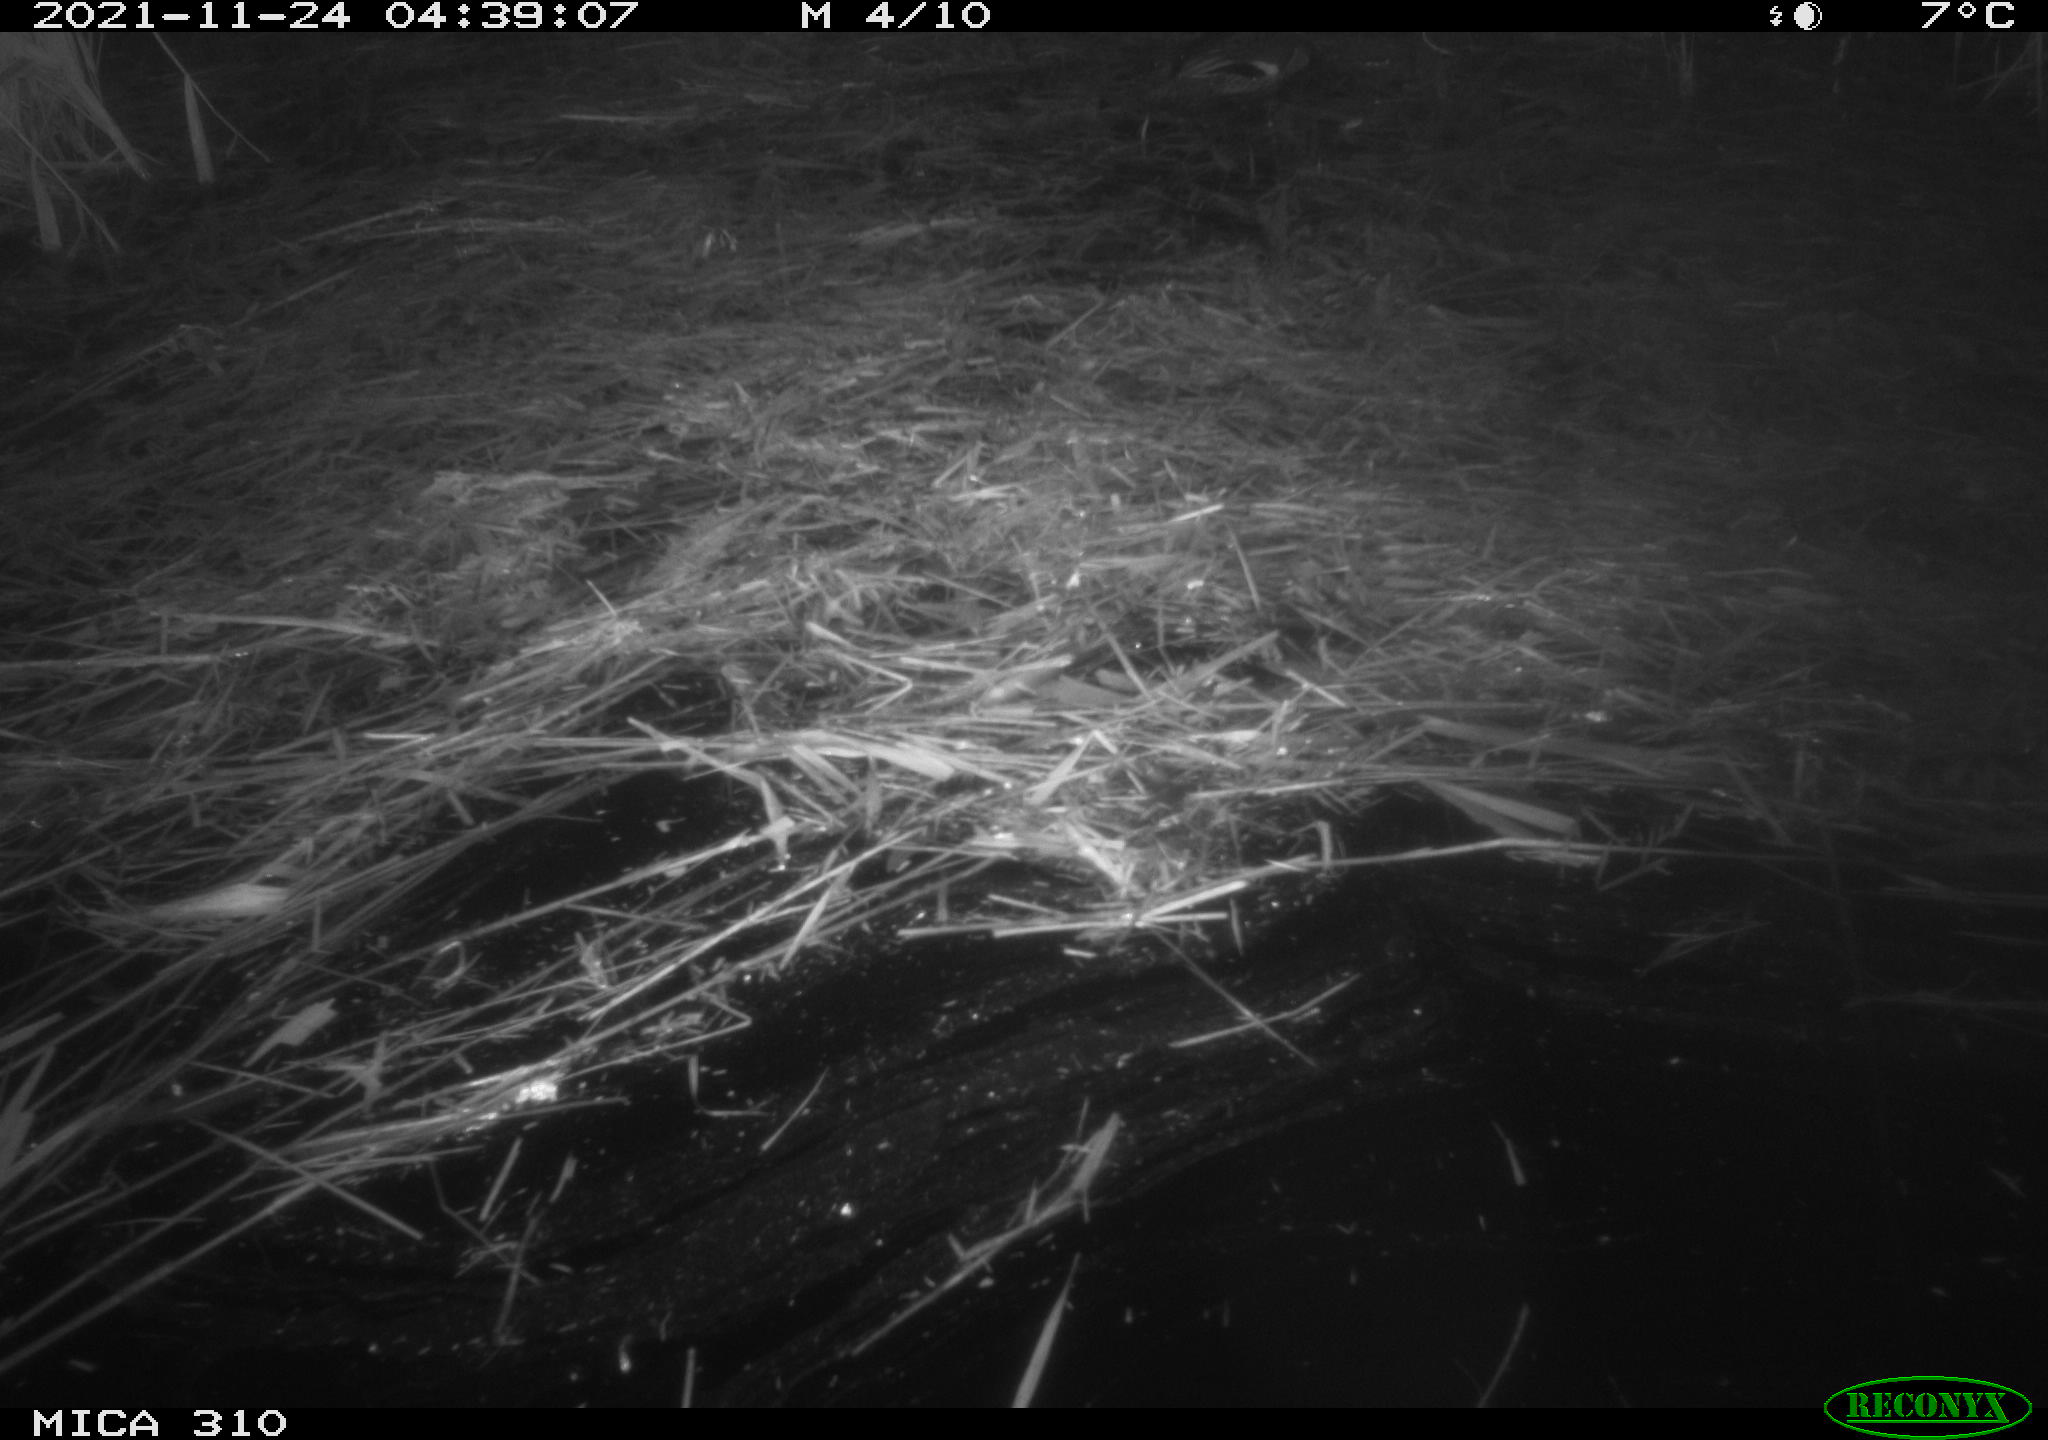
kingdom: Animalia
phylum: Chordata
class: Aves
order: Anseriformes
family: Anatidae
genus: Anas
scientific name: Anas crecca
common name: Eurasian teal
